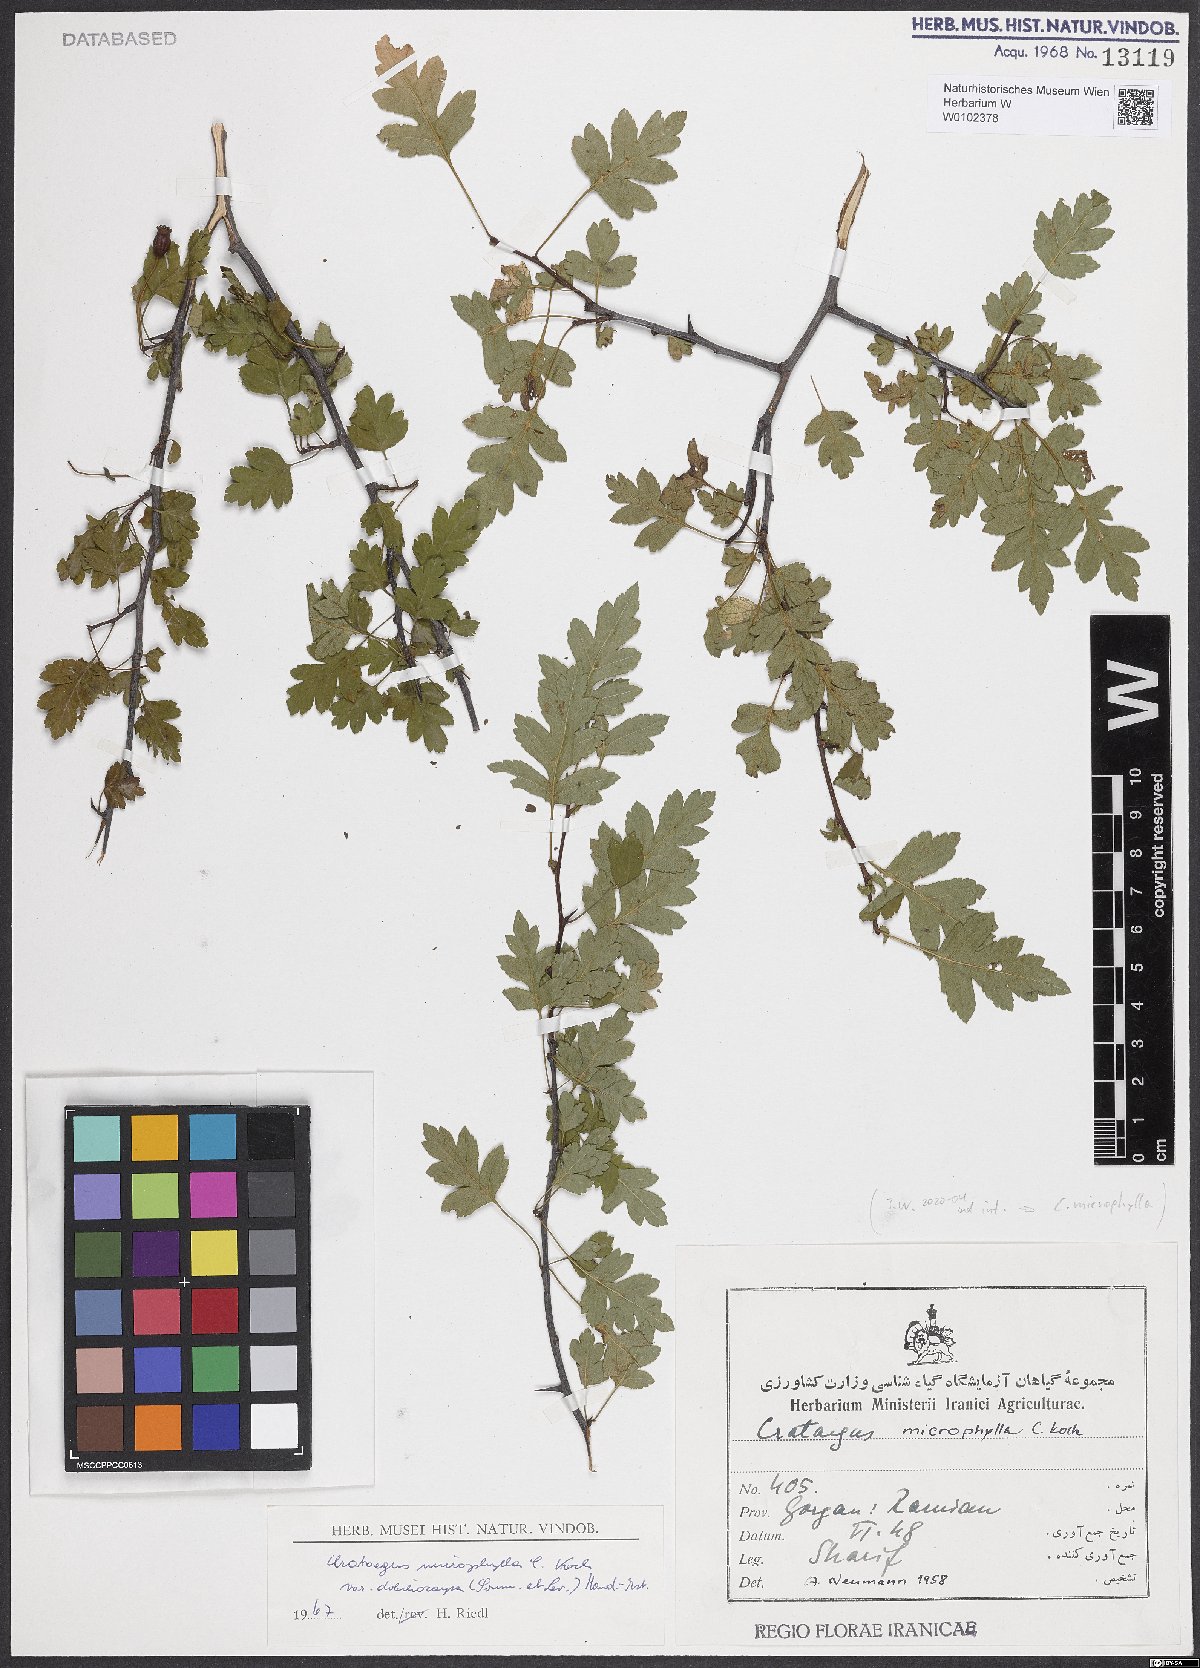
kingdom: Plantae
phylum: Tracheophyta
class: Magnoliopsida
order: Rosales
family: Rosaceae
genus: Crataegus
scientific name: Crataegus microphylla
